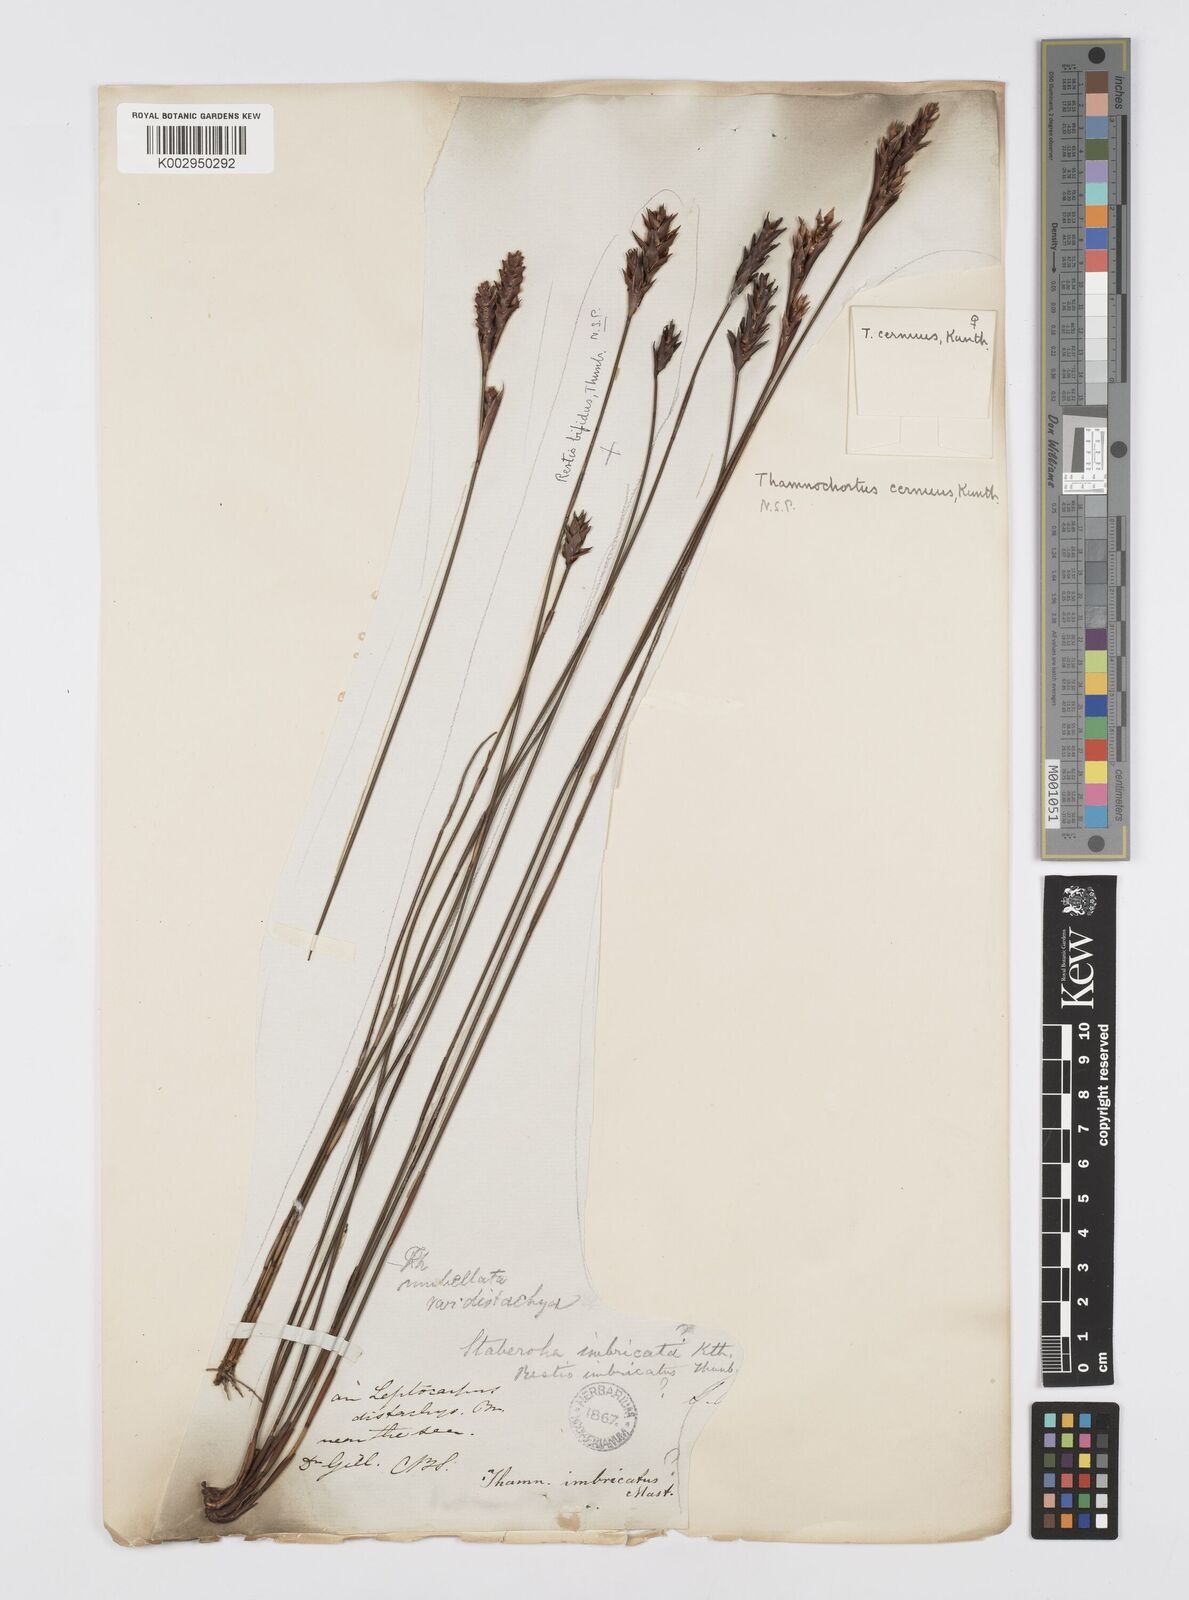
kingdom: Plantae
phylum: Tracheophyta
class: Liliopsida
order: Poales
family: Restionaceae
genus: Staberoha
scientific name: Staberoha cernua
